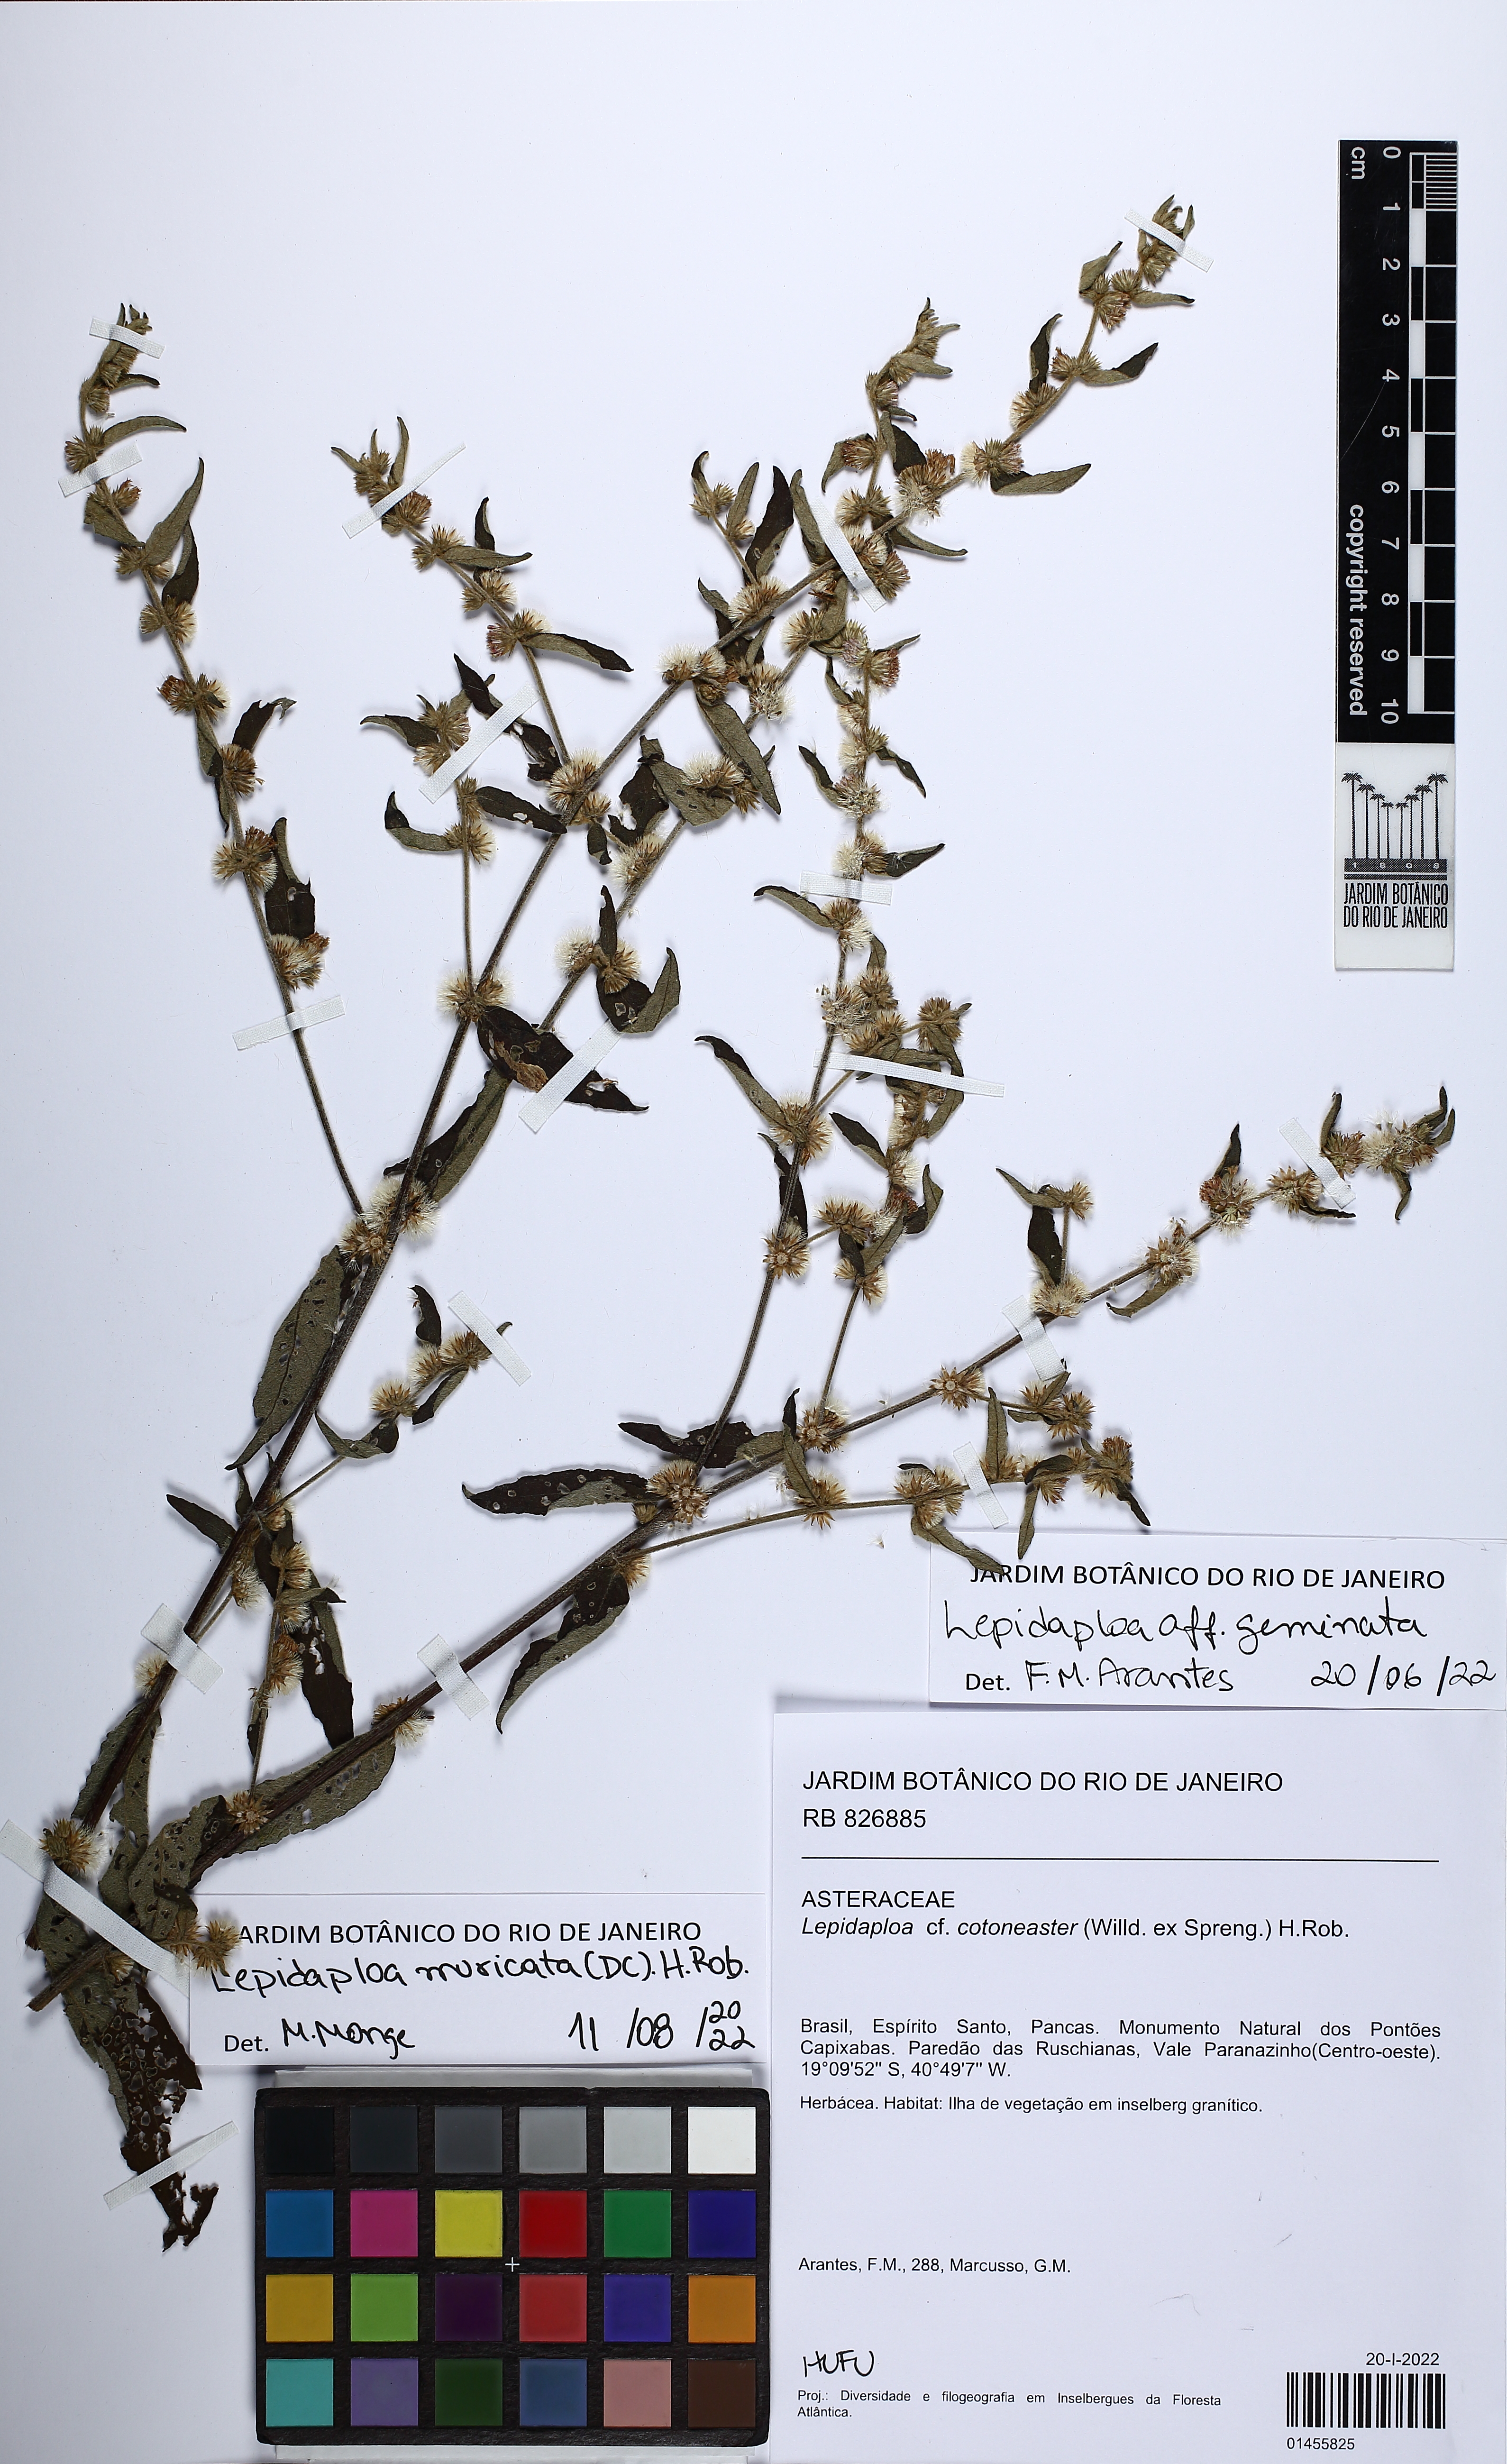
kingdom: Plantae
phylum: Tracheophyta
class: Magnoliopsida
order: Asterales
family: Asteraceae
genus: Lepidaploa
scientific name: Lepidaploa muricata
